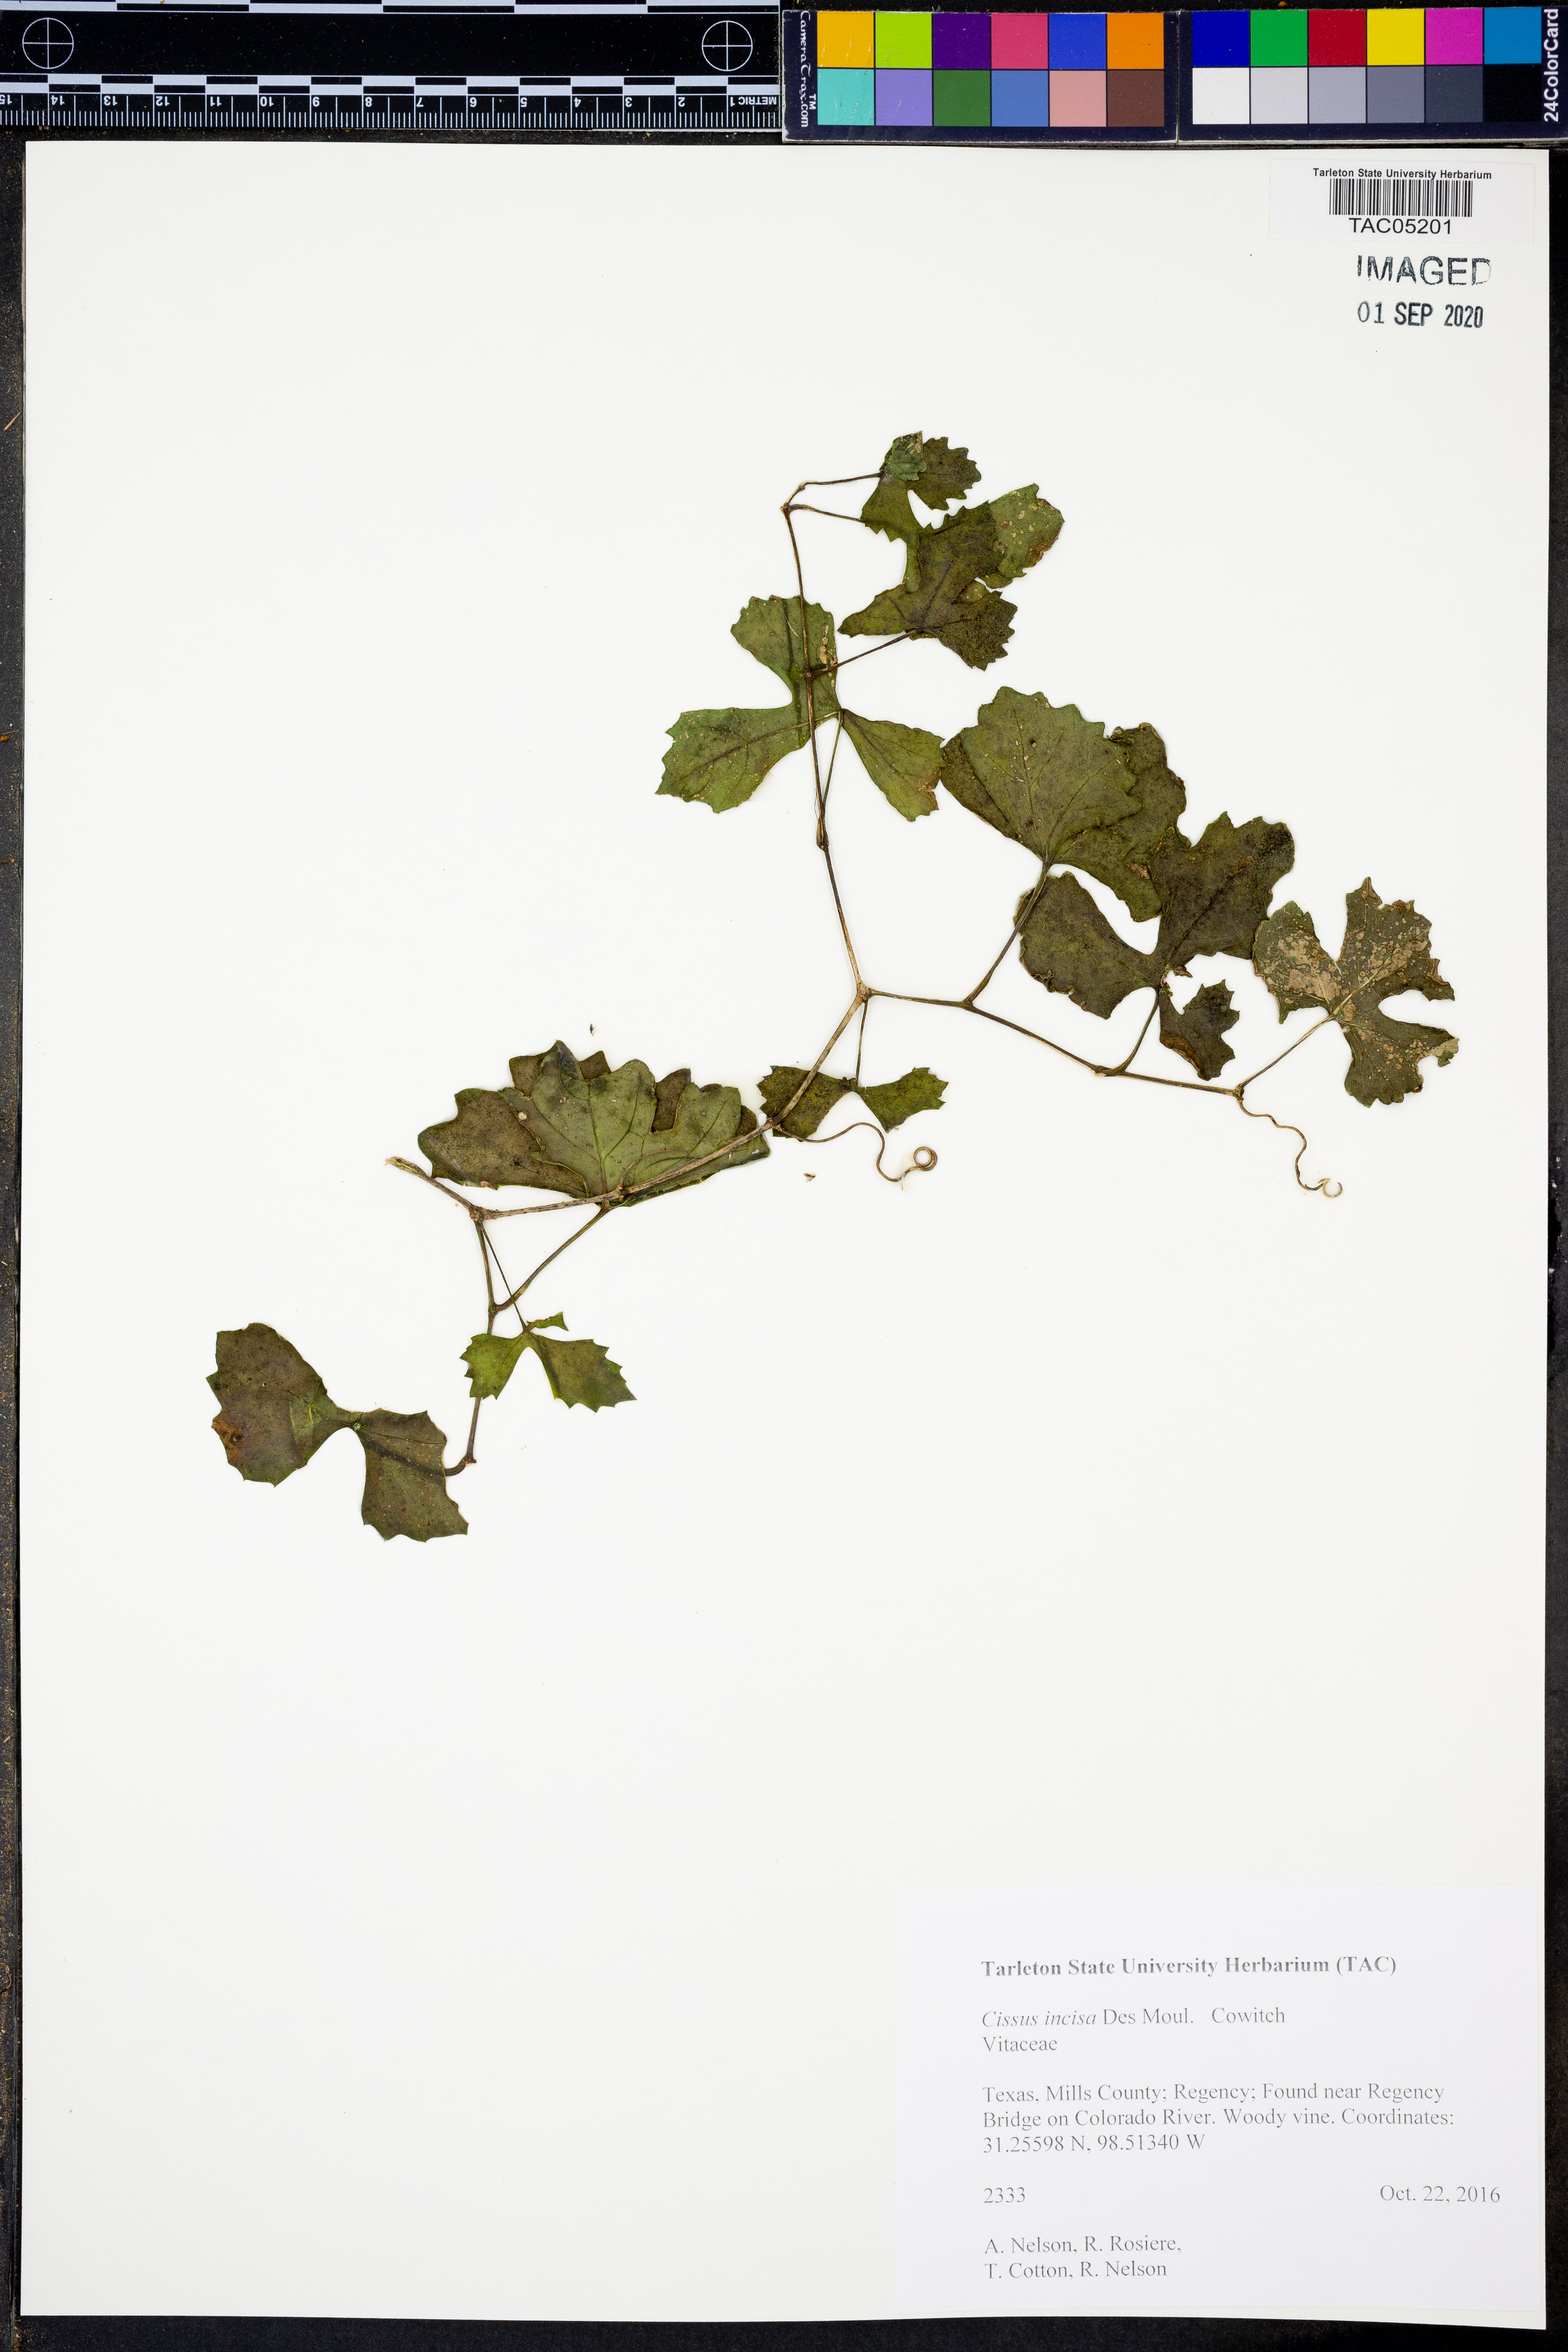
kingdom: Plantae
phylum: Tracheophyta
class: Magnoliopsida
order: Vitales
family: Vitaceae
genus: Cissus
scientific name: Cissus trifoliata
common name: Vine-sorrel
